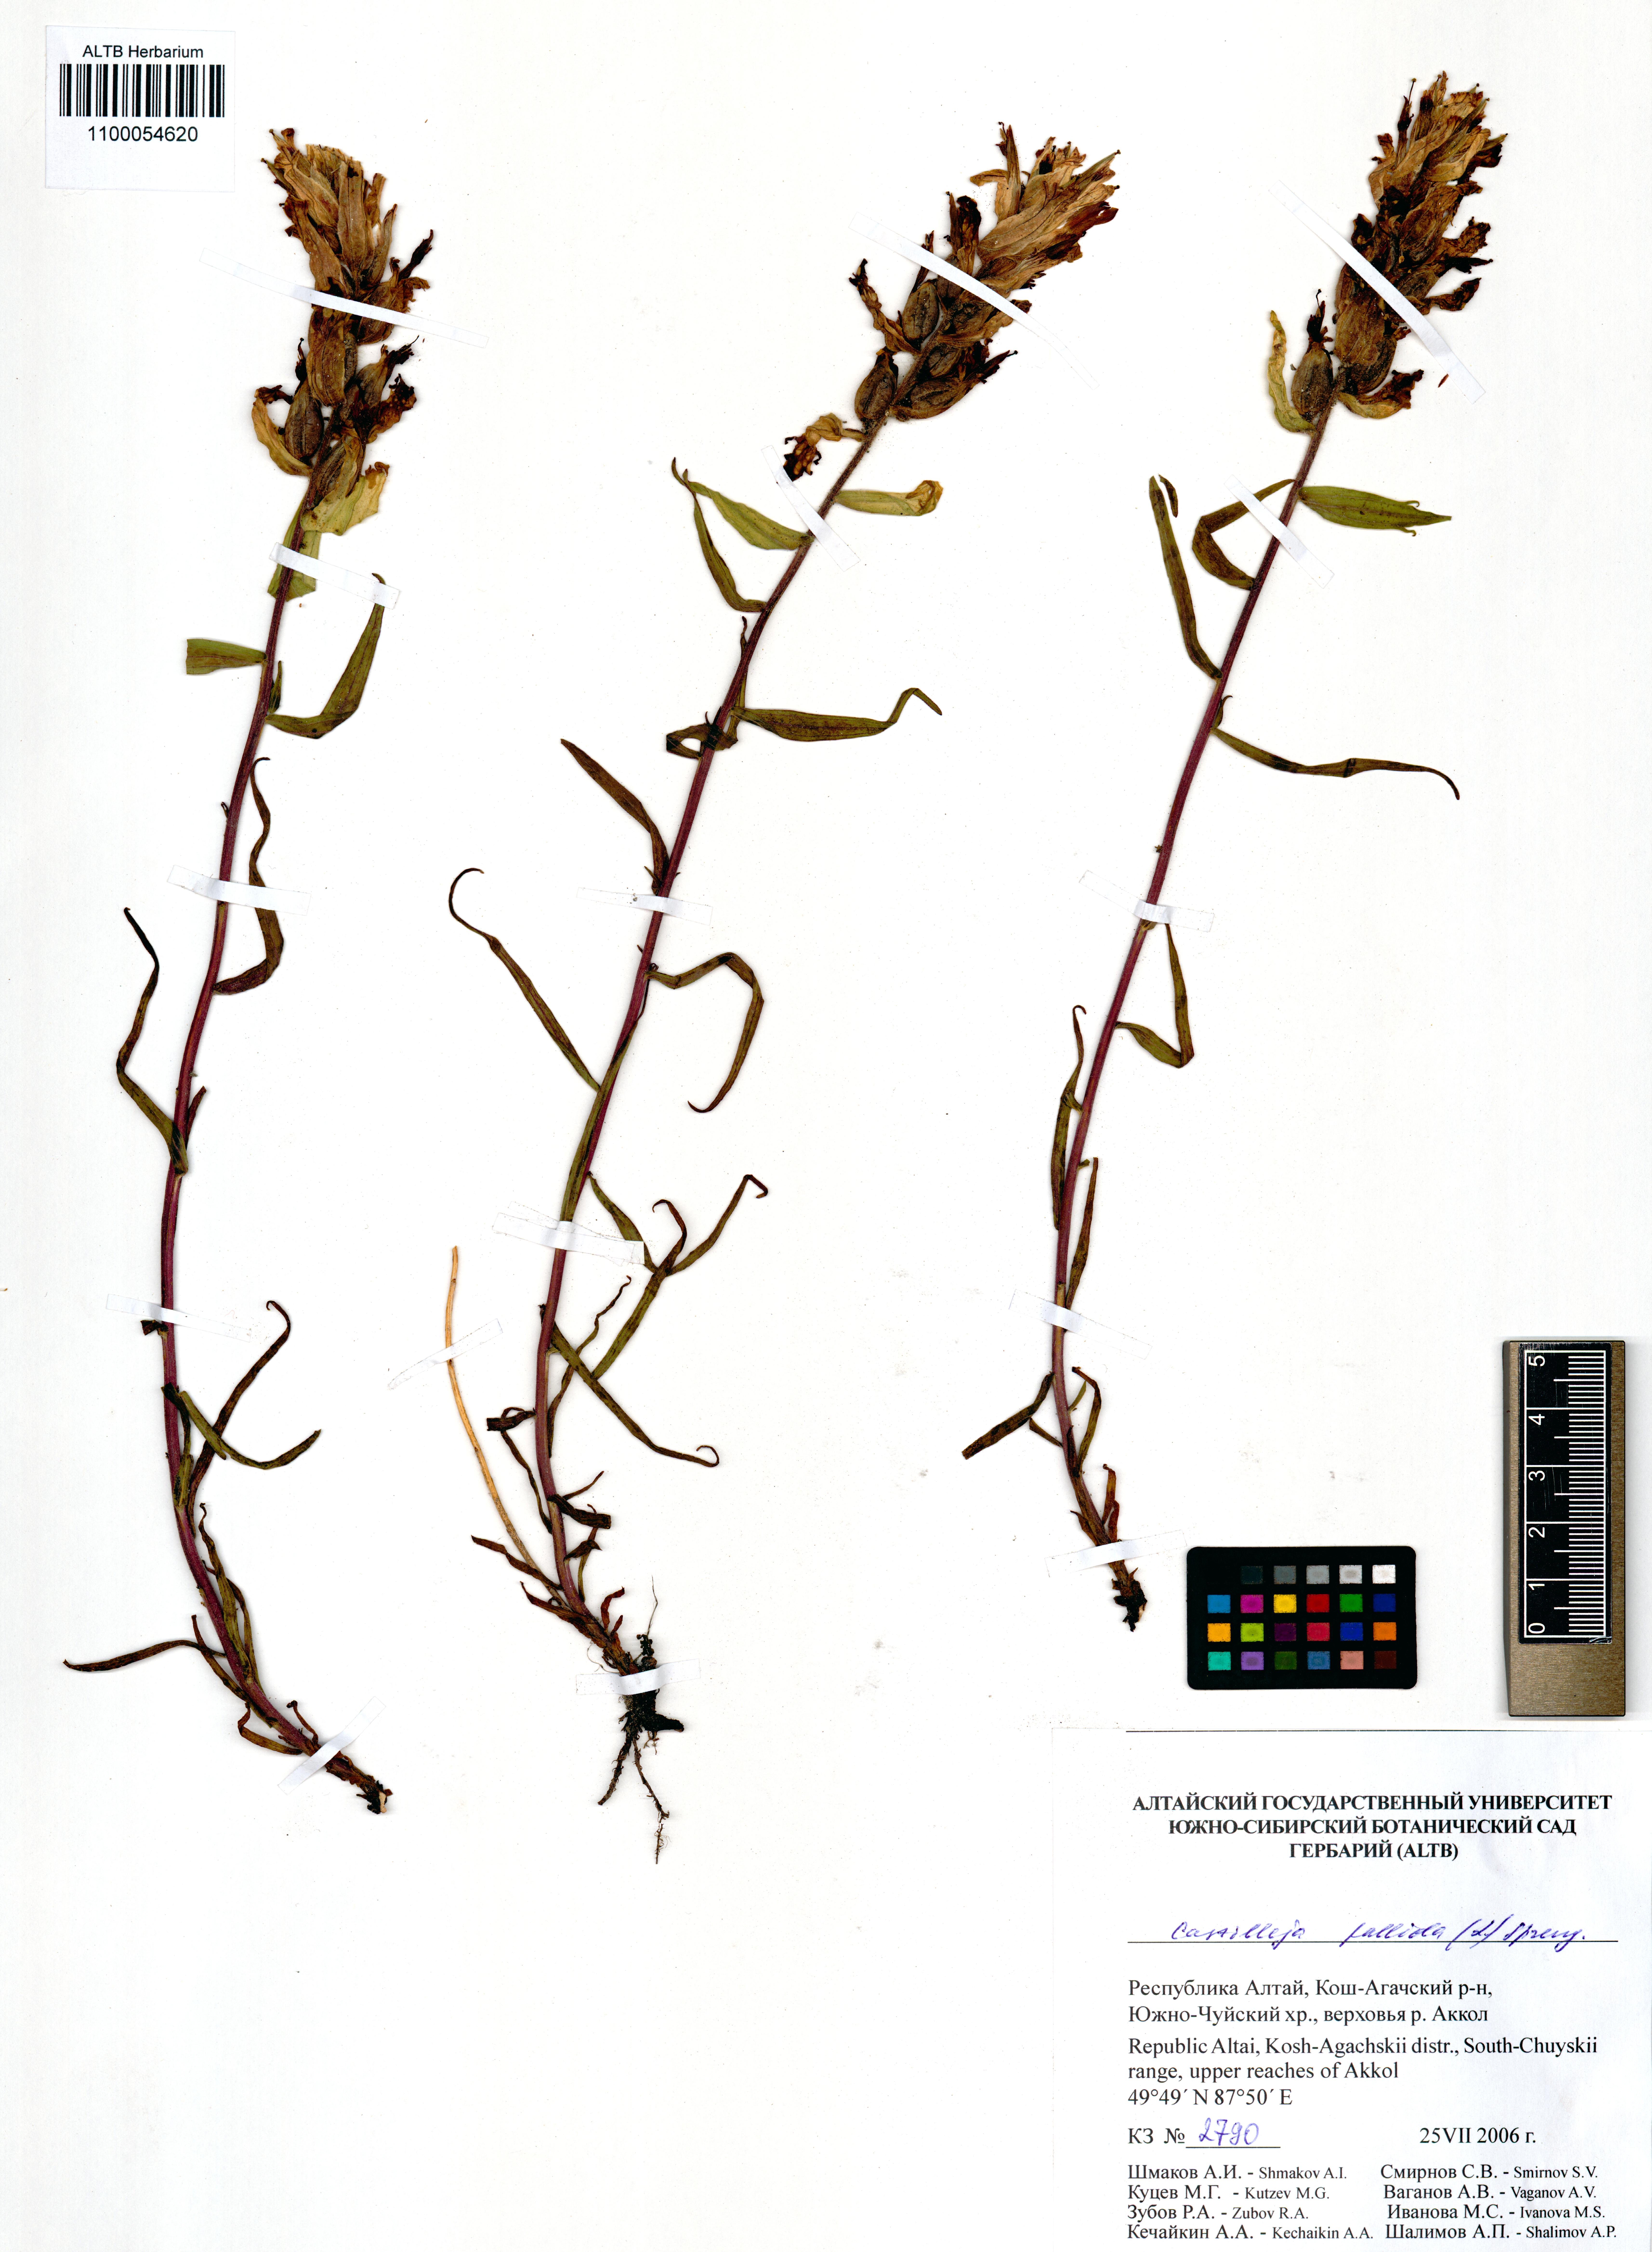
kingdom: Plantae
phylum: Tracheophyta
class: Magnoliopsida
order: Lamiales
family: Orobanchaceae
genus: Castilleja
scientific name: Castilleja pallida
